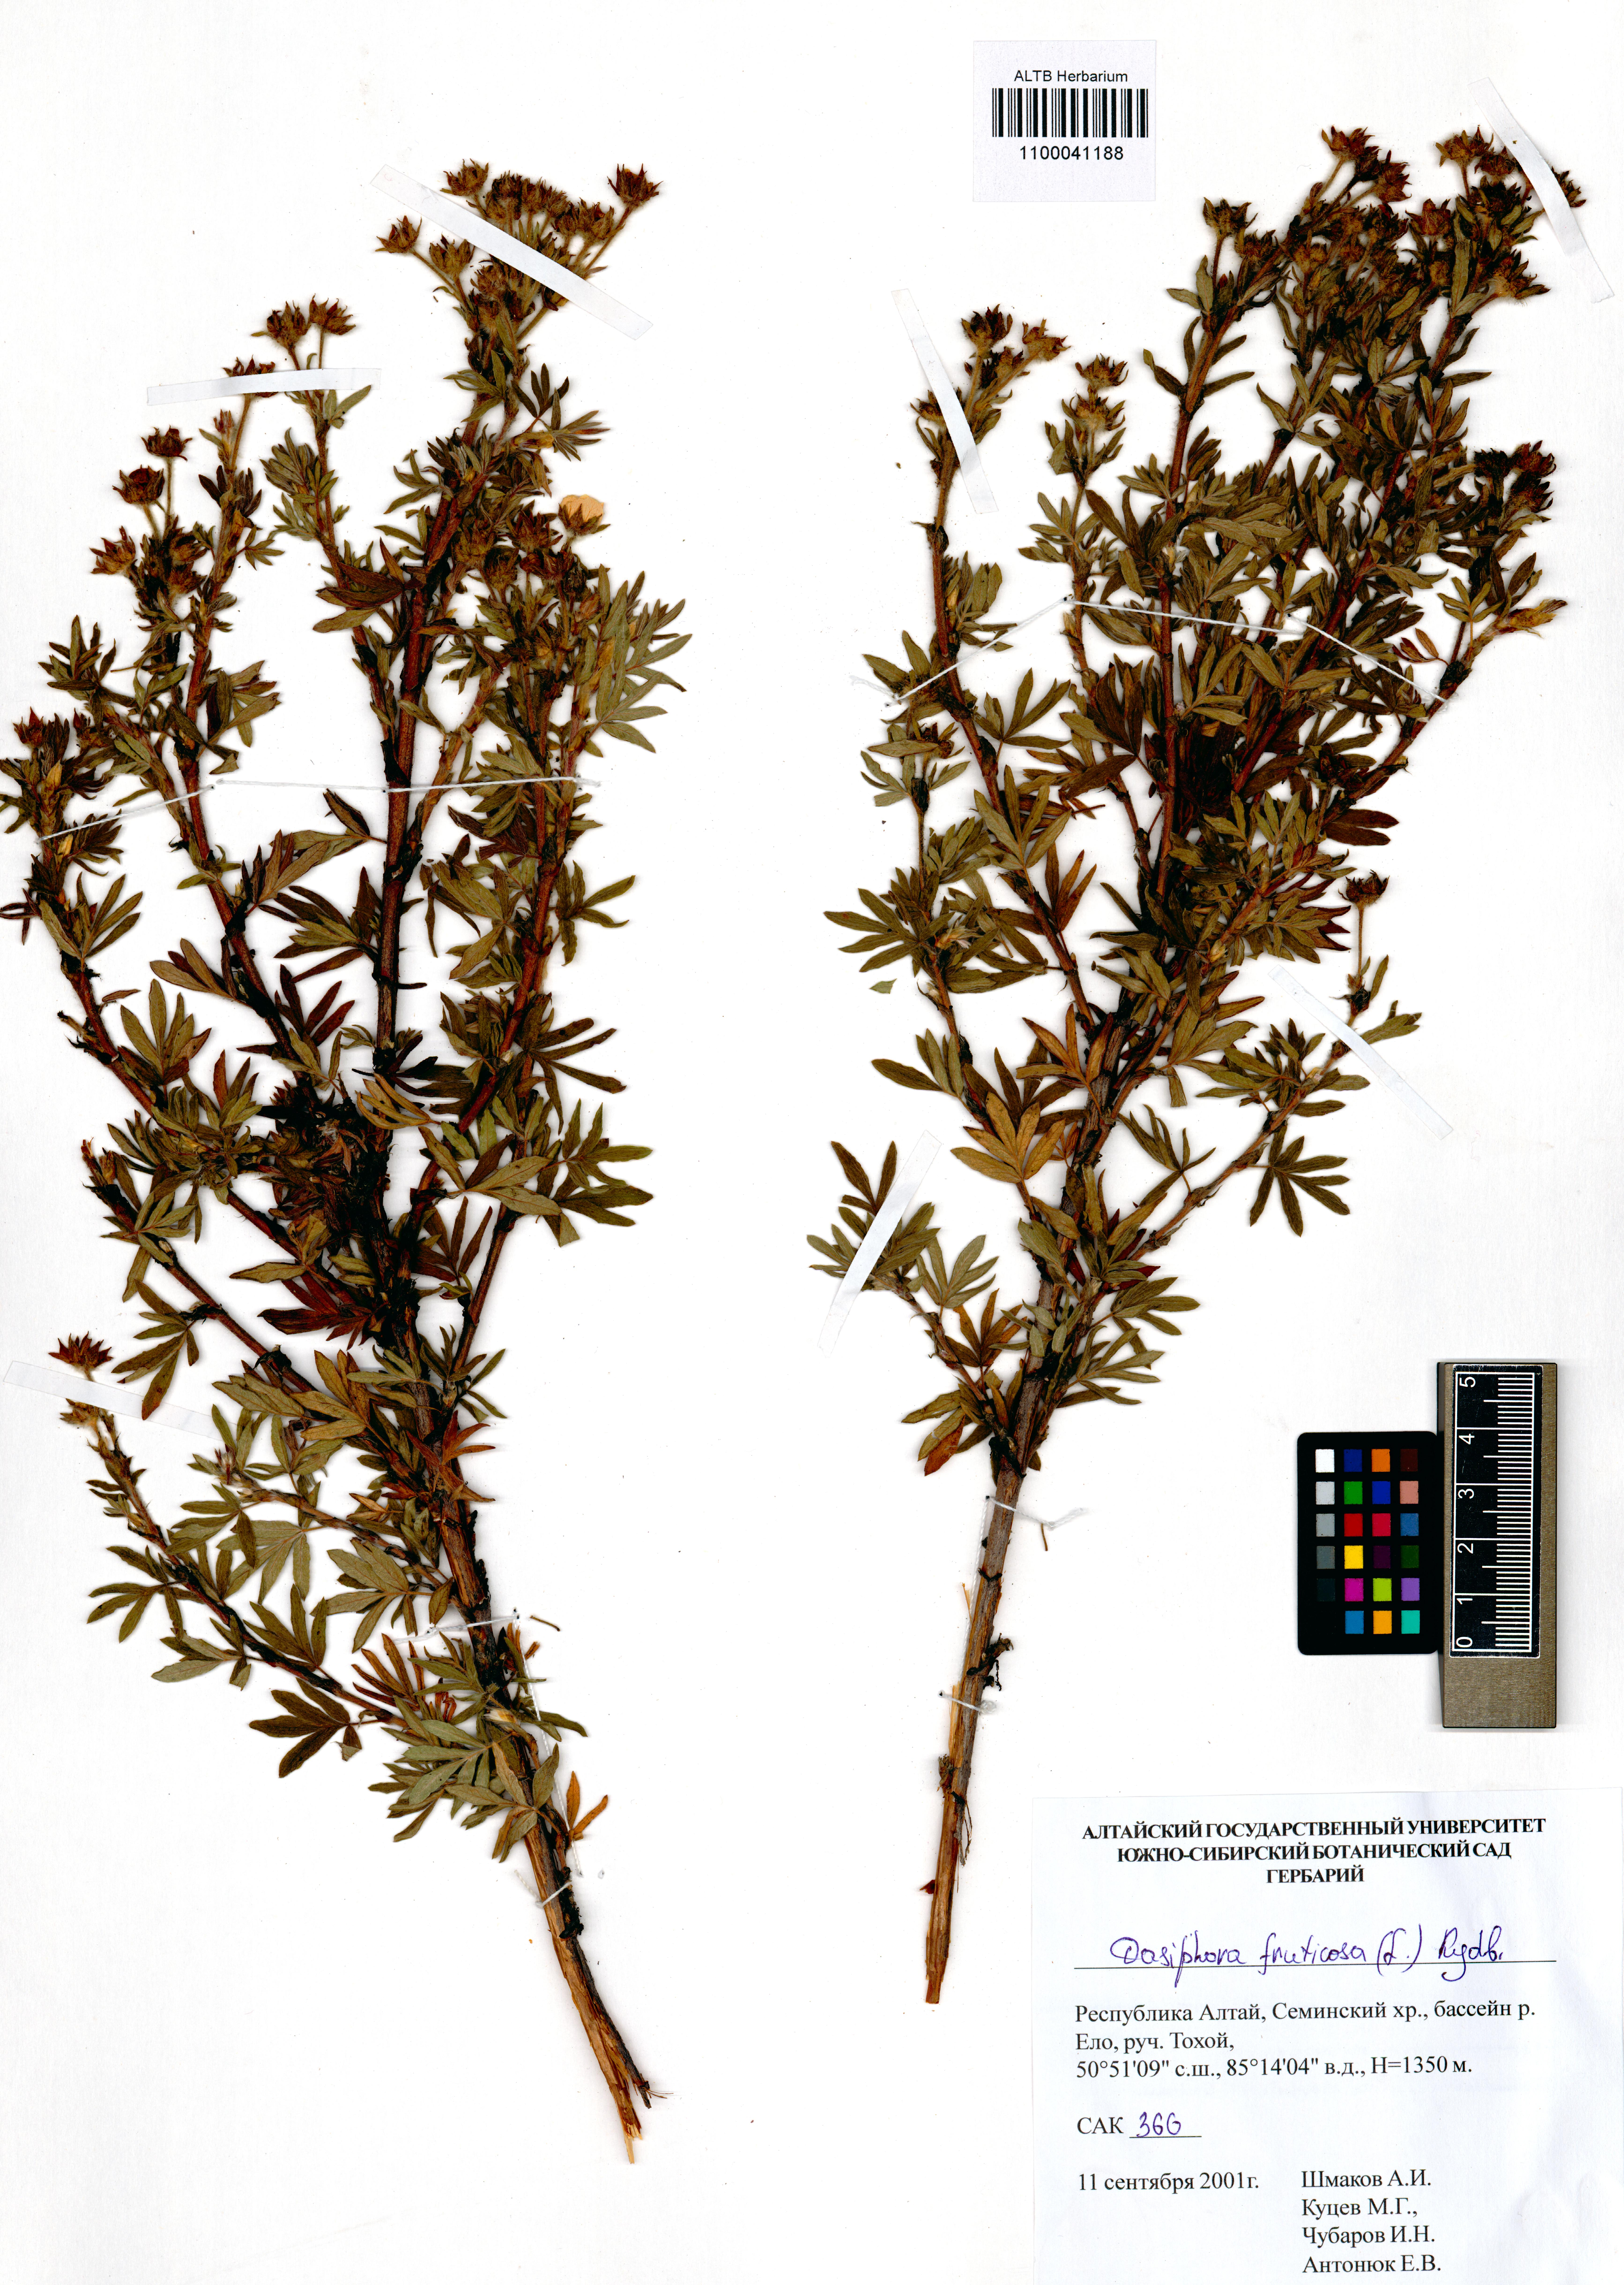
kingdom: Plantae
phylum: Tracheophyta
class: Magnoliopsida
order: Rosales
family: Rosaceae
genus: Dasiphora
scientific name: Dasiphora fruticosa
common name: Shrubby cinquefoil
